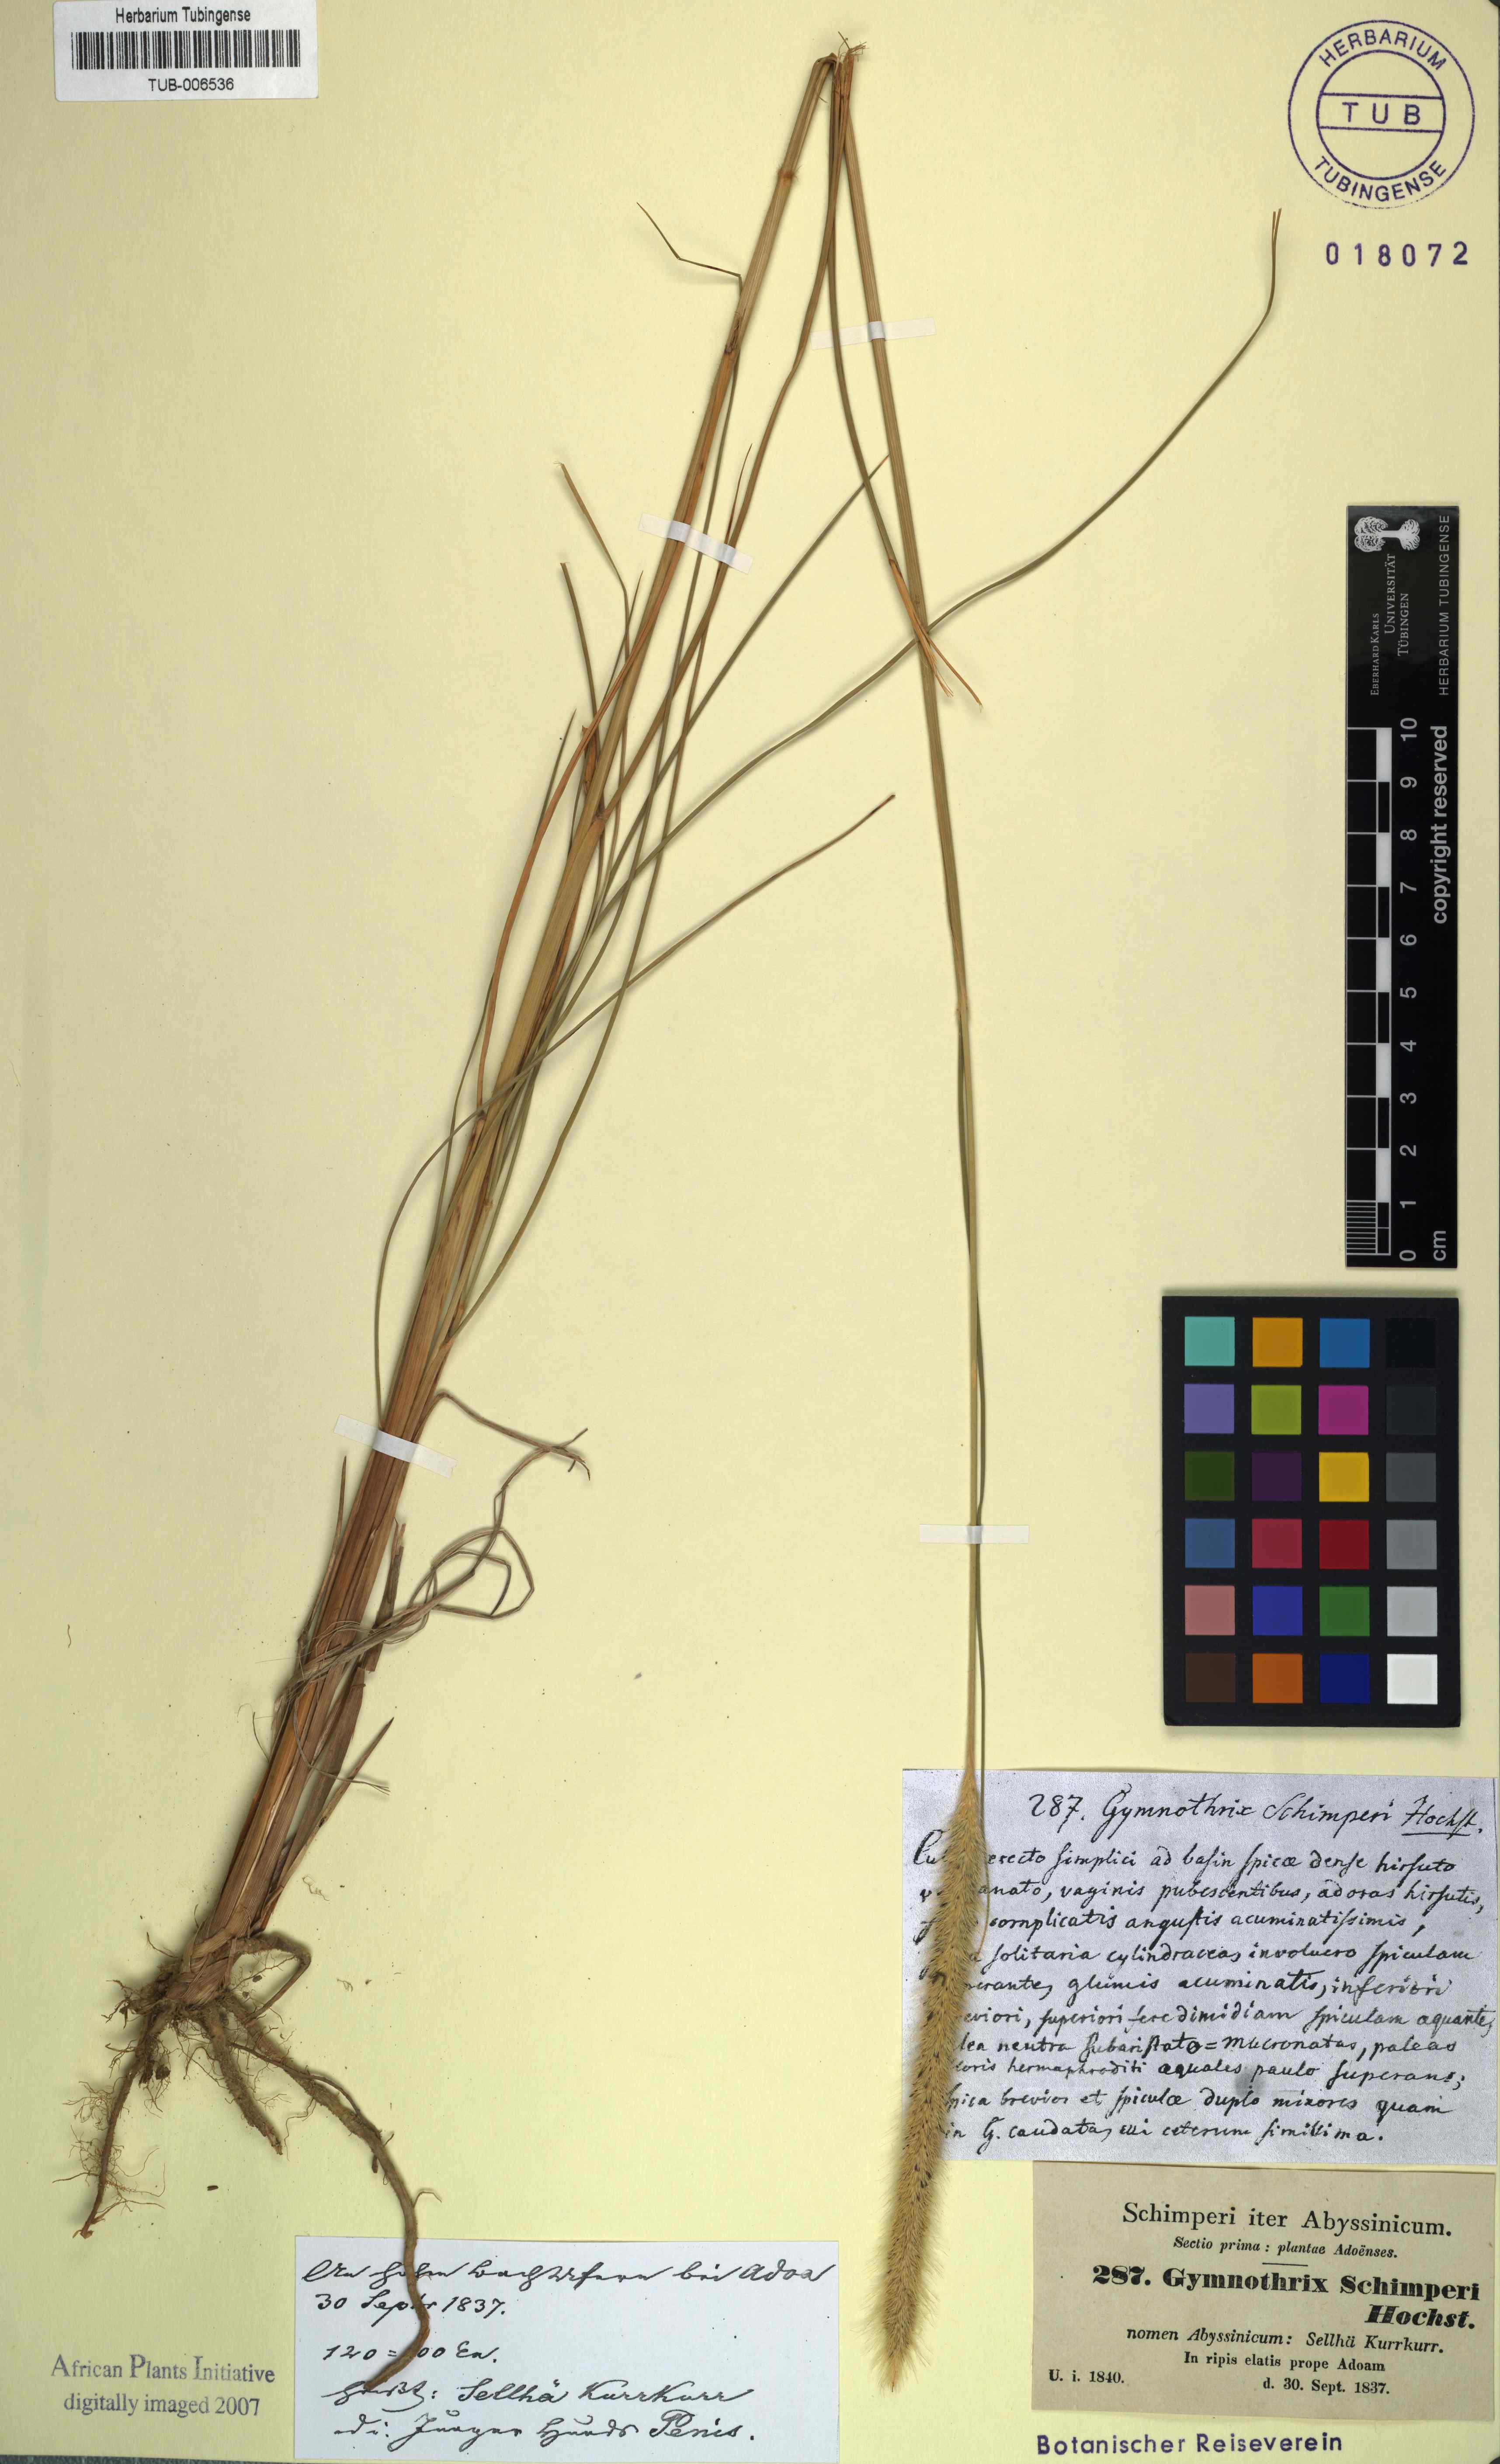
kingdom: Plantae
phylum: Tracheophyta
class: Liliopsida
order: Poales
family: Poaceae
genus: Cenchrus
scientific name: Cenchrus sphacelatus
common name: Bulgras
